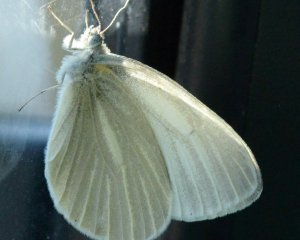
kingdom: Animalia
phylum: Arthropoda
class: Insecta
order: Lepidoptera
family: Pieridae
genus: Pieris
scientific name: Pieris virginiensis
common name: West Virginia White
